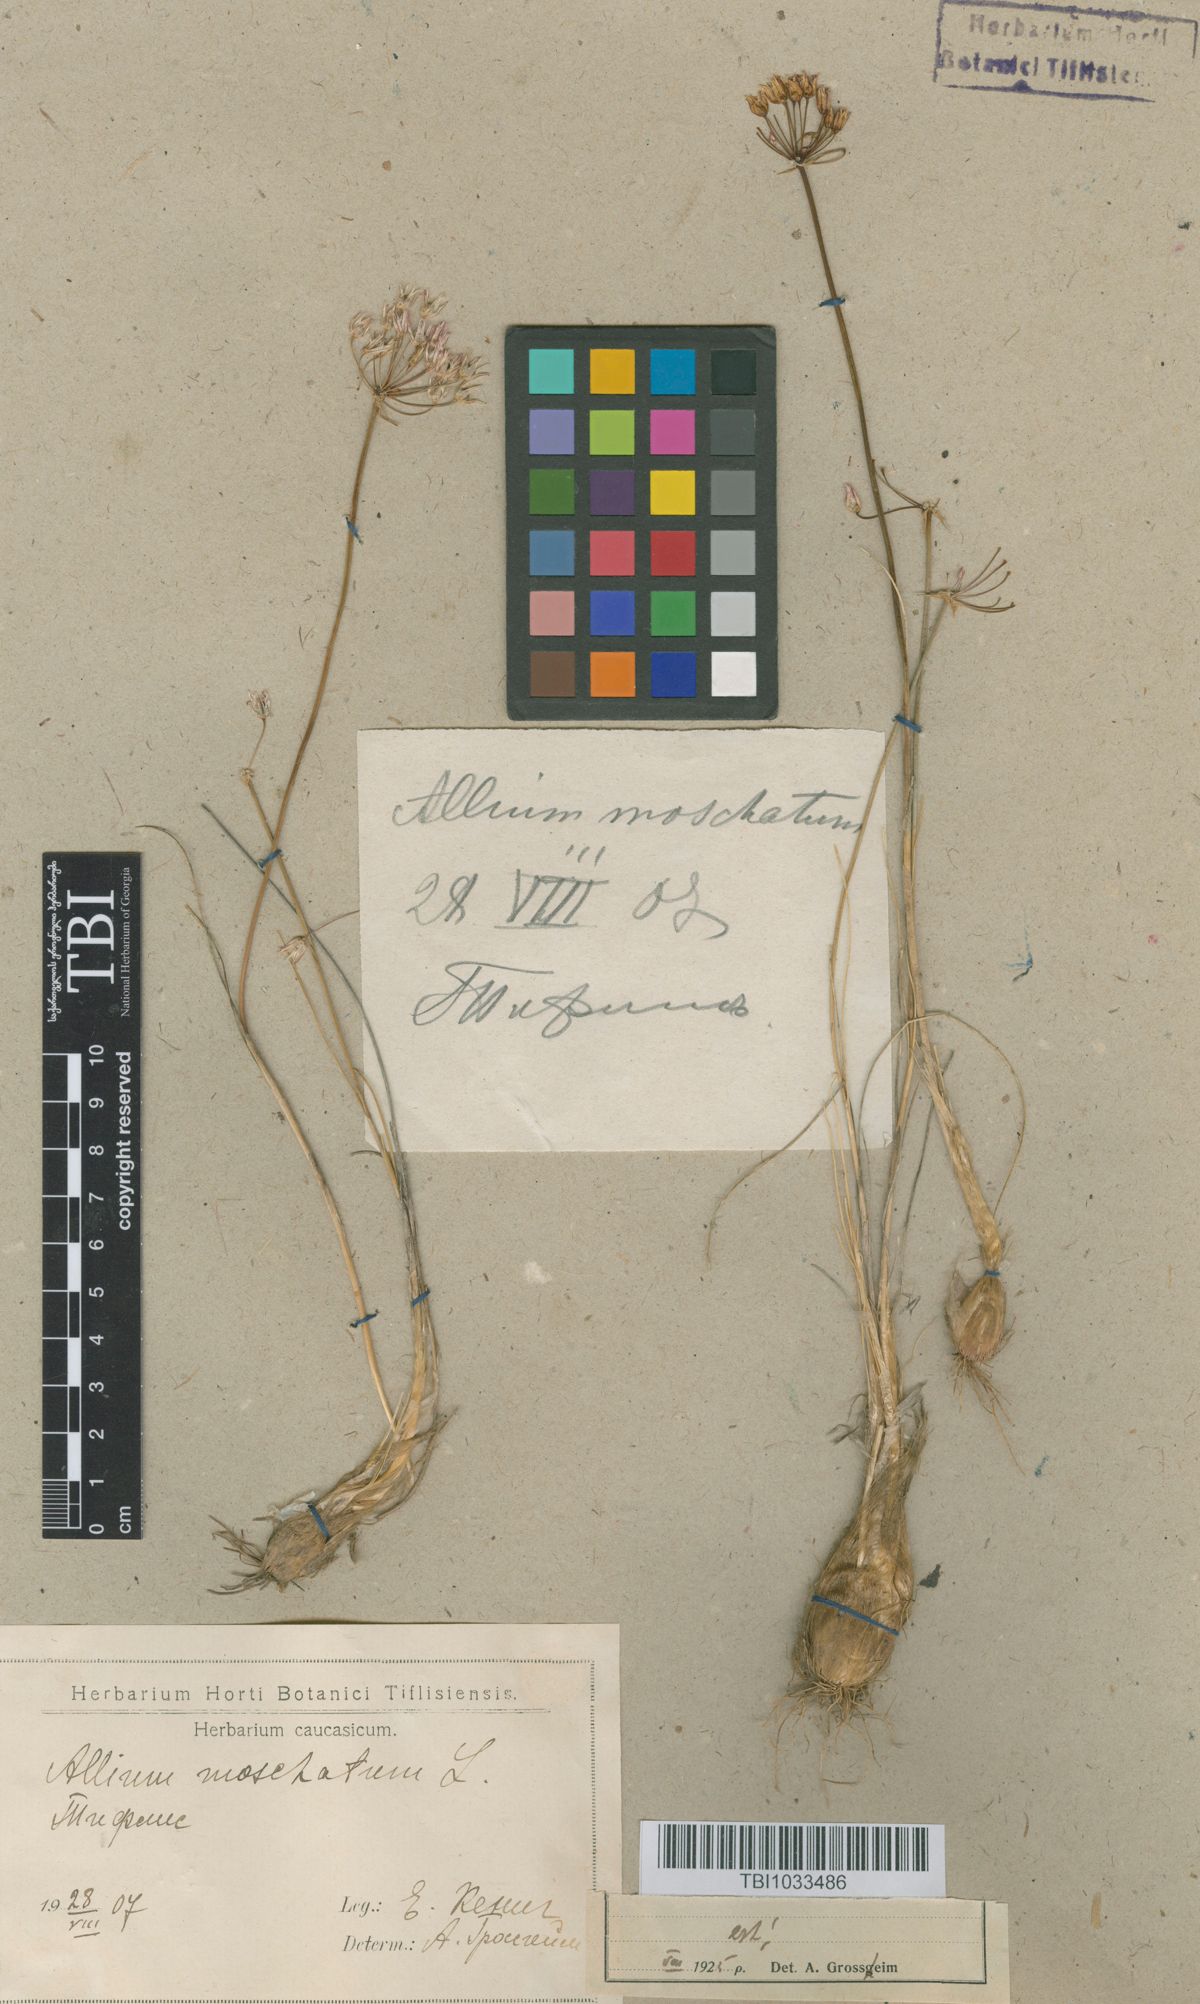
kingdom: Plantae
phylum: Tracheophyta
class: Liliopsida
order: Asparagales
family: Amaryllidaceae
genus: Allium
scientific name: Allium moschatum
